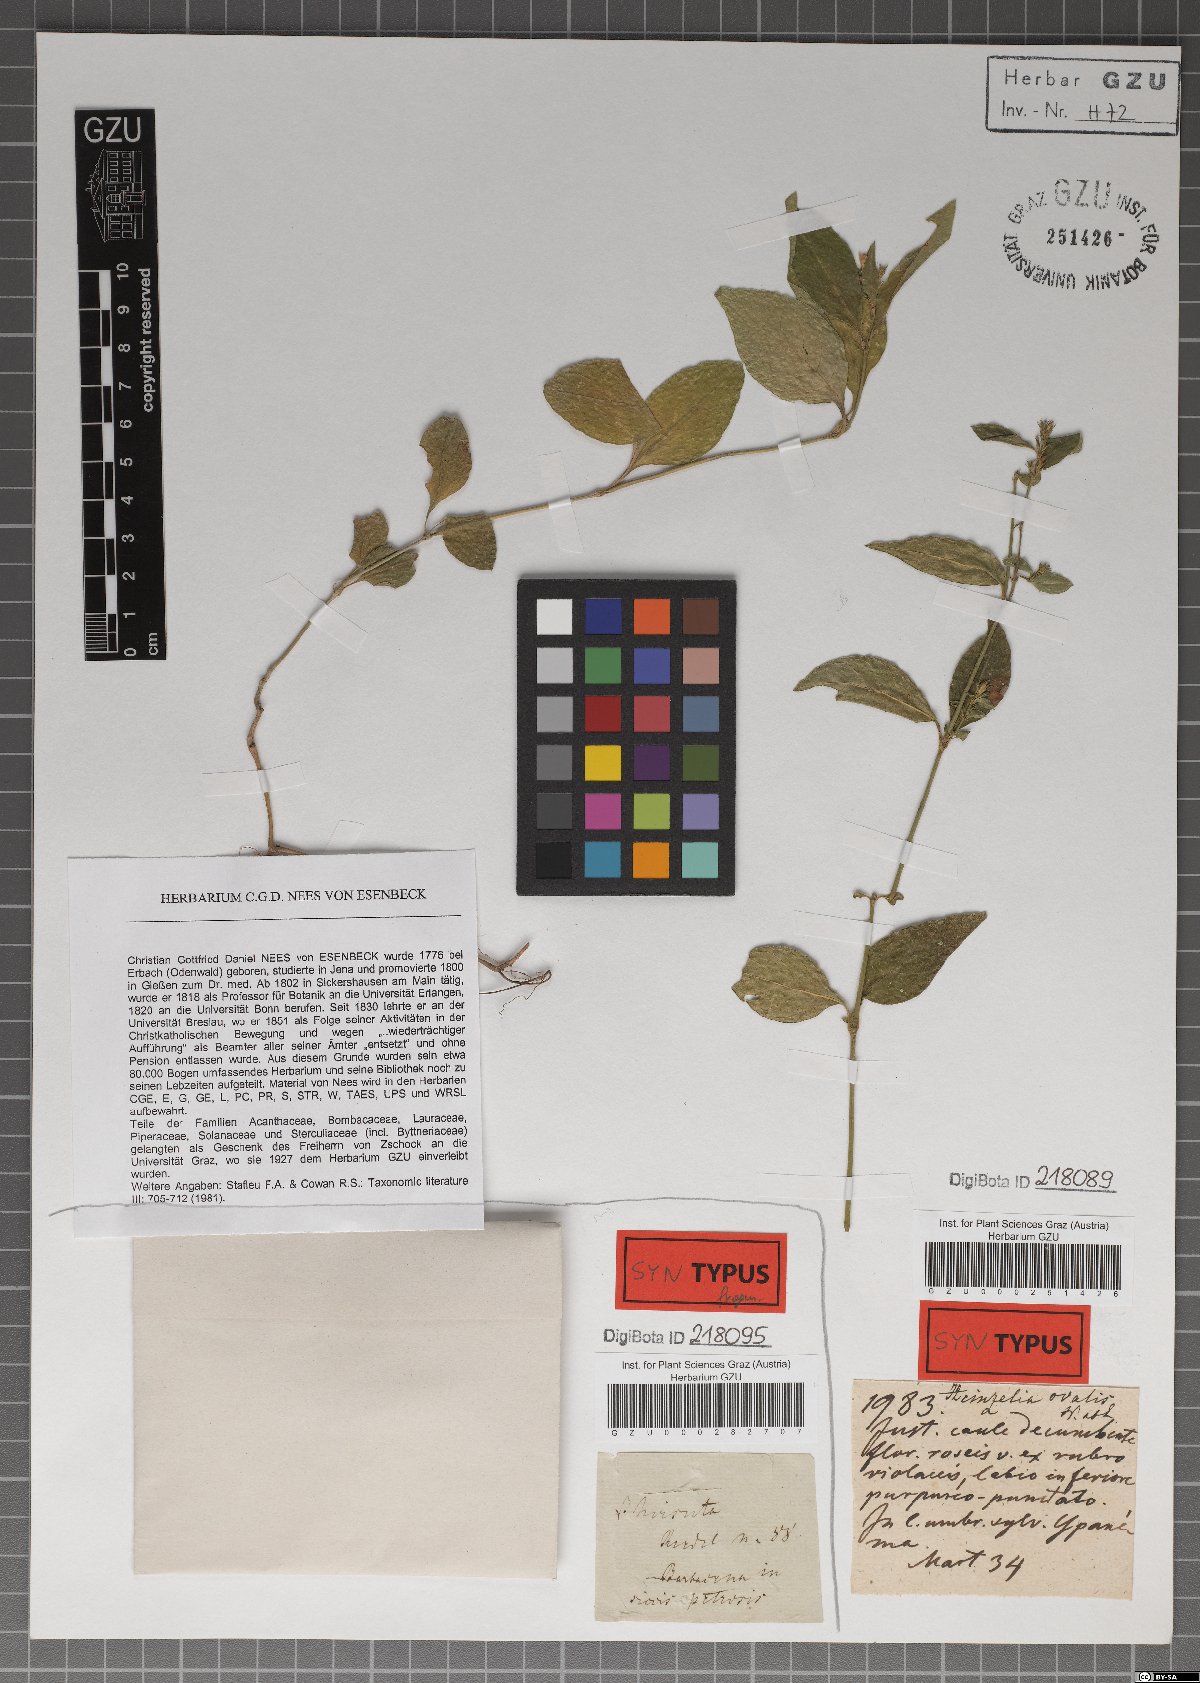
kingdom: Plantae
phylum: Tracheophyta
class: Magnoliopsida
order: Lamiales
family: Acanthaceae
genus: Justicia
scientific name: Justicia lythroides
